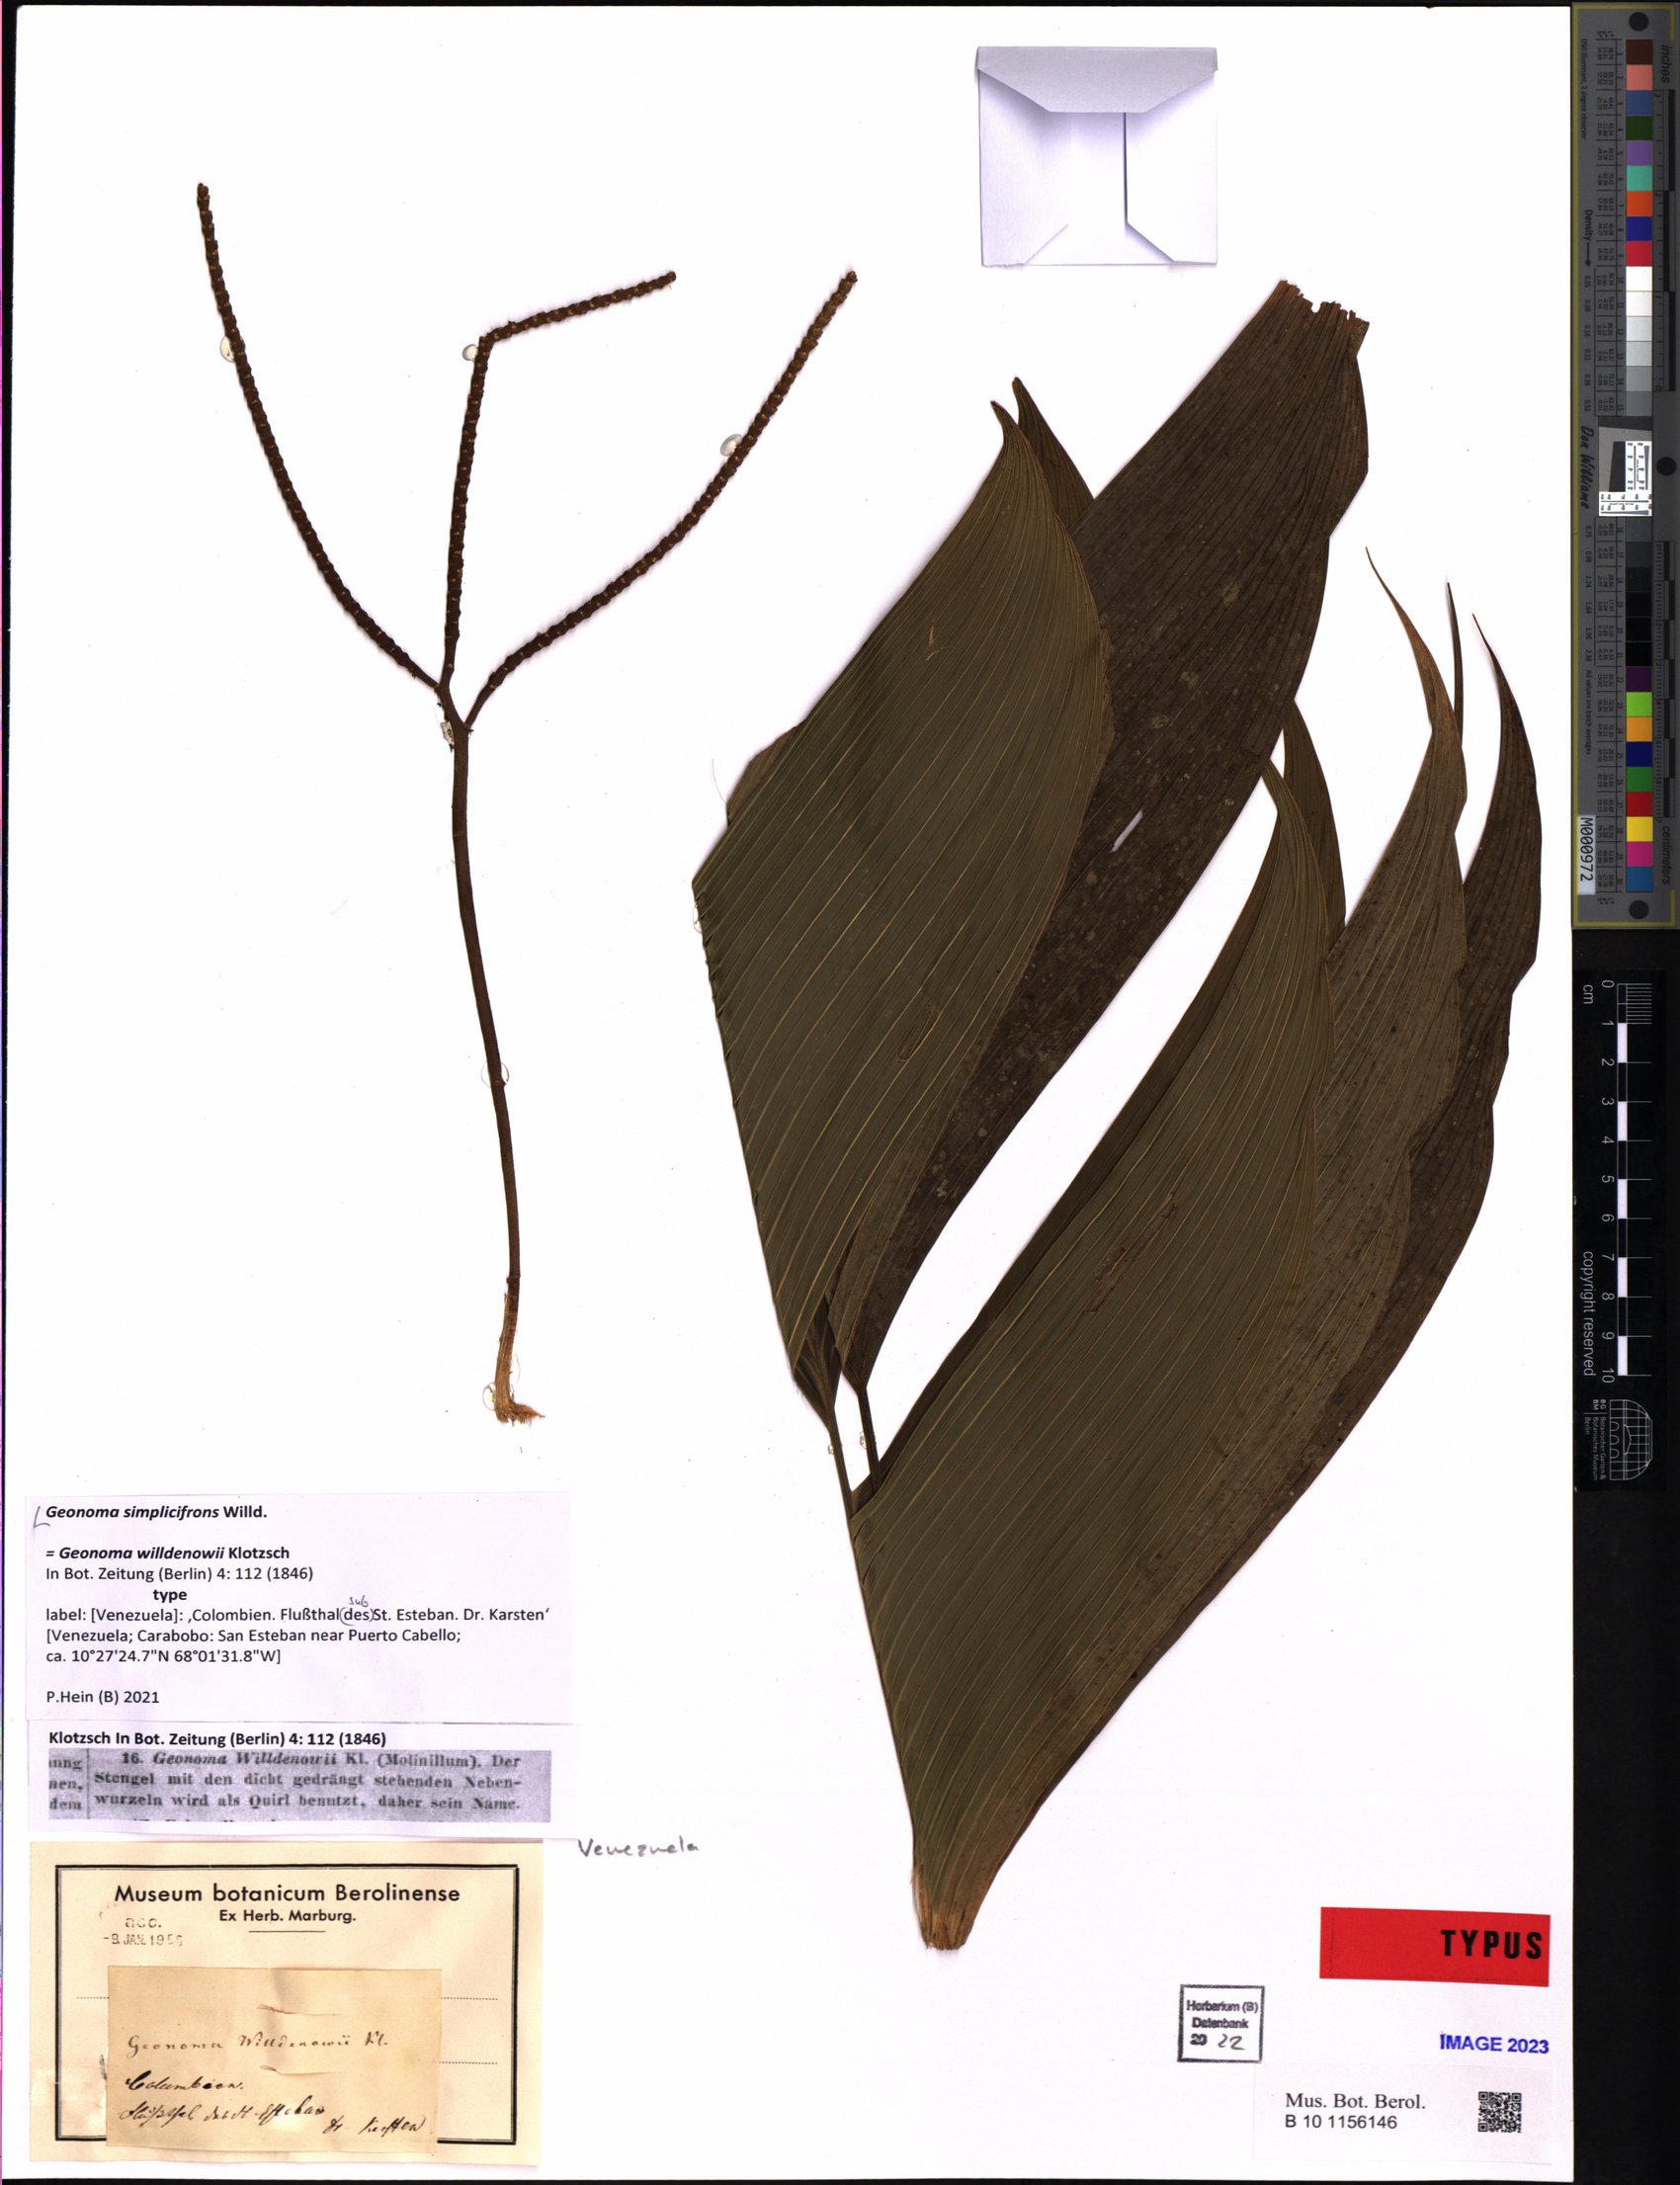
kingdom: Plantae
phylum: Tracheophyta
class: Liliopsida
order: Arecales
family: Arecaceae
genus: Geonoma
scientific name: Geonoma simplicifrons
